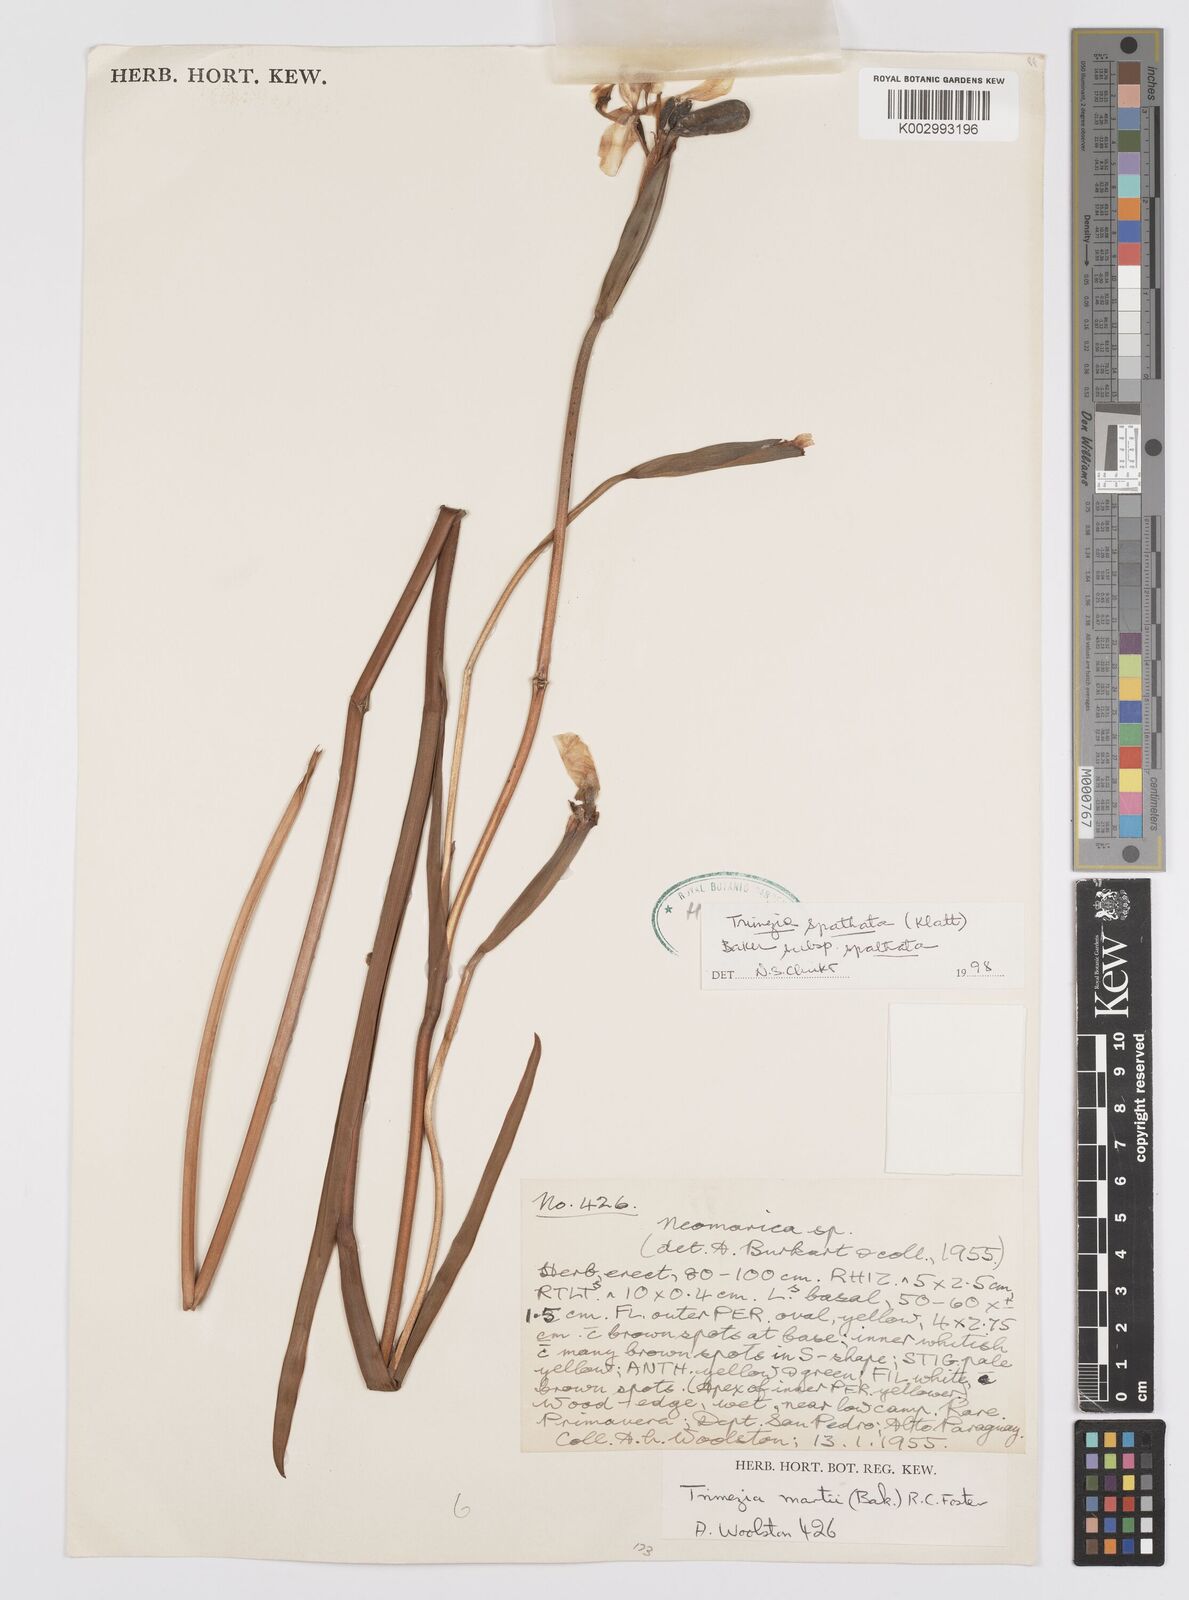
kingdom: Plantae
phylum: Tracheophyta
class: Liliopsida
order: Asparagales
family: Iridaceae
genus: Trimezia
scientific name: Trimezia spathata
